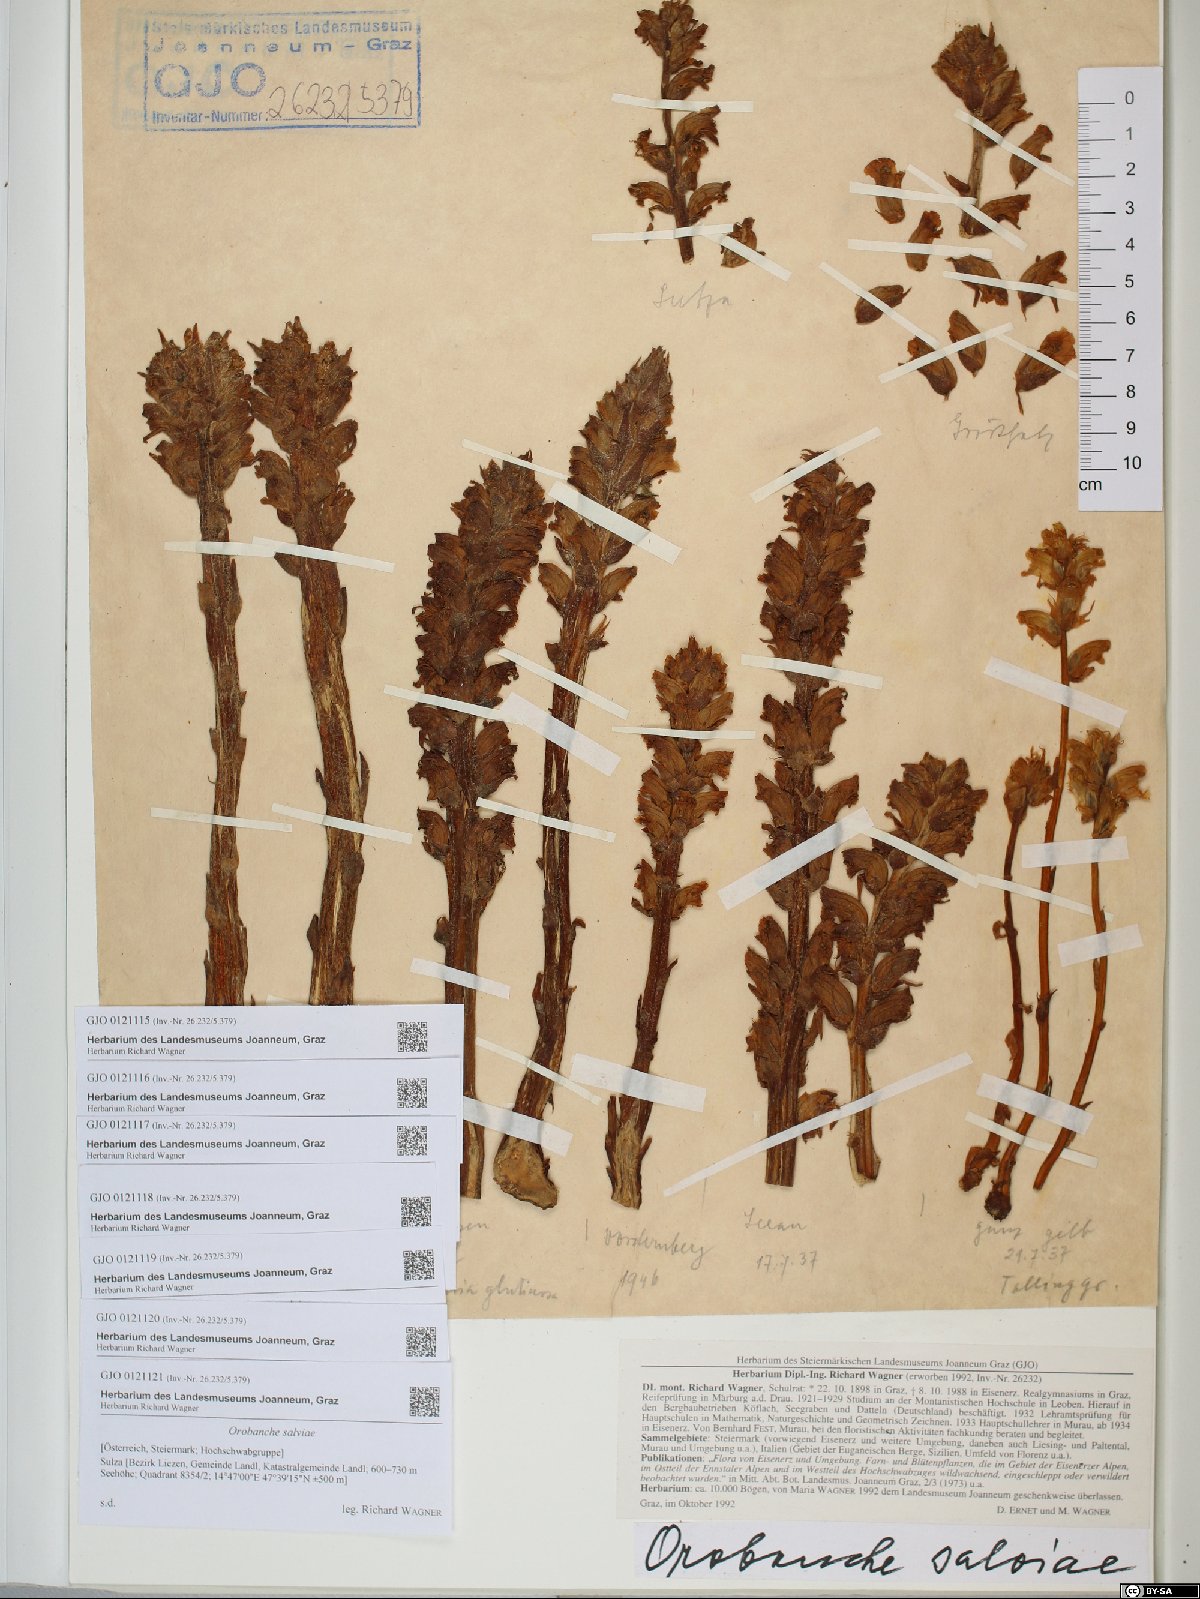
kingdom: Plantae
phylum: Tracheophyta
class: Magnoliopsida
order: Lamiales
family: Orobanchaceae
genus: Orobanche
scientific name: Orobanche salviae
